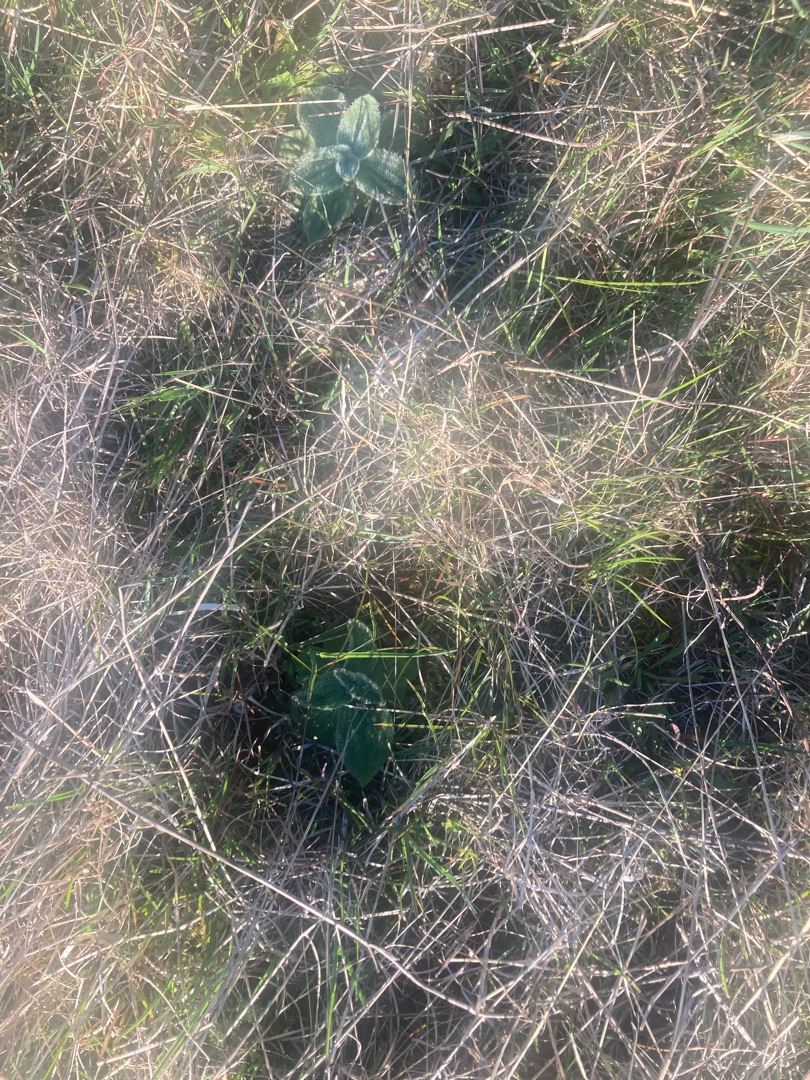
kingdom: Plantae
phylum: Tracheophyta
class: Magnoliopsida
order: Lamiales
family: Plantaginaceae
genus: Plantago
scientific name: Plantago media
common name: Dunet vejbred
